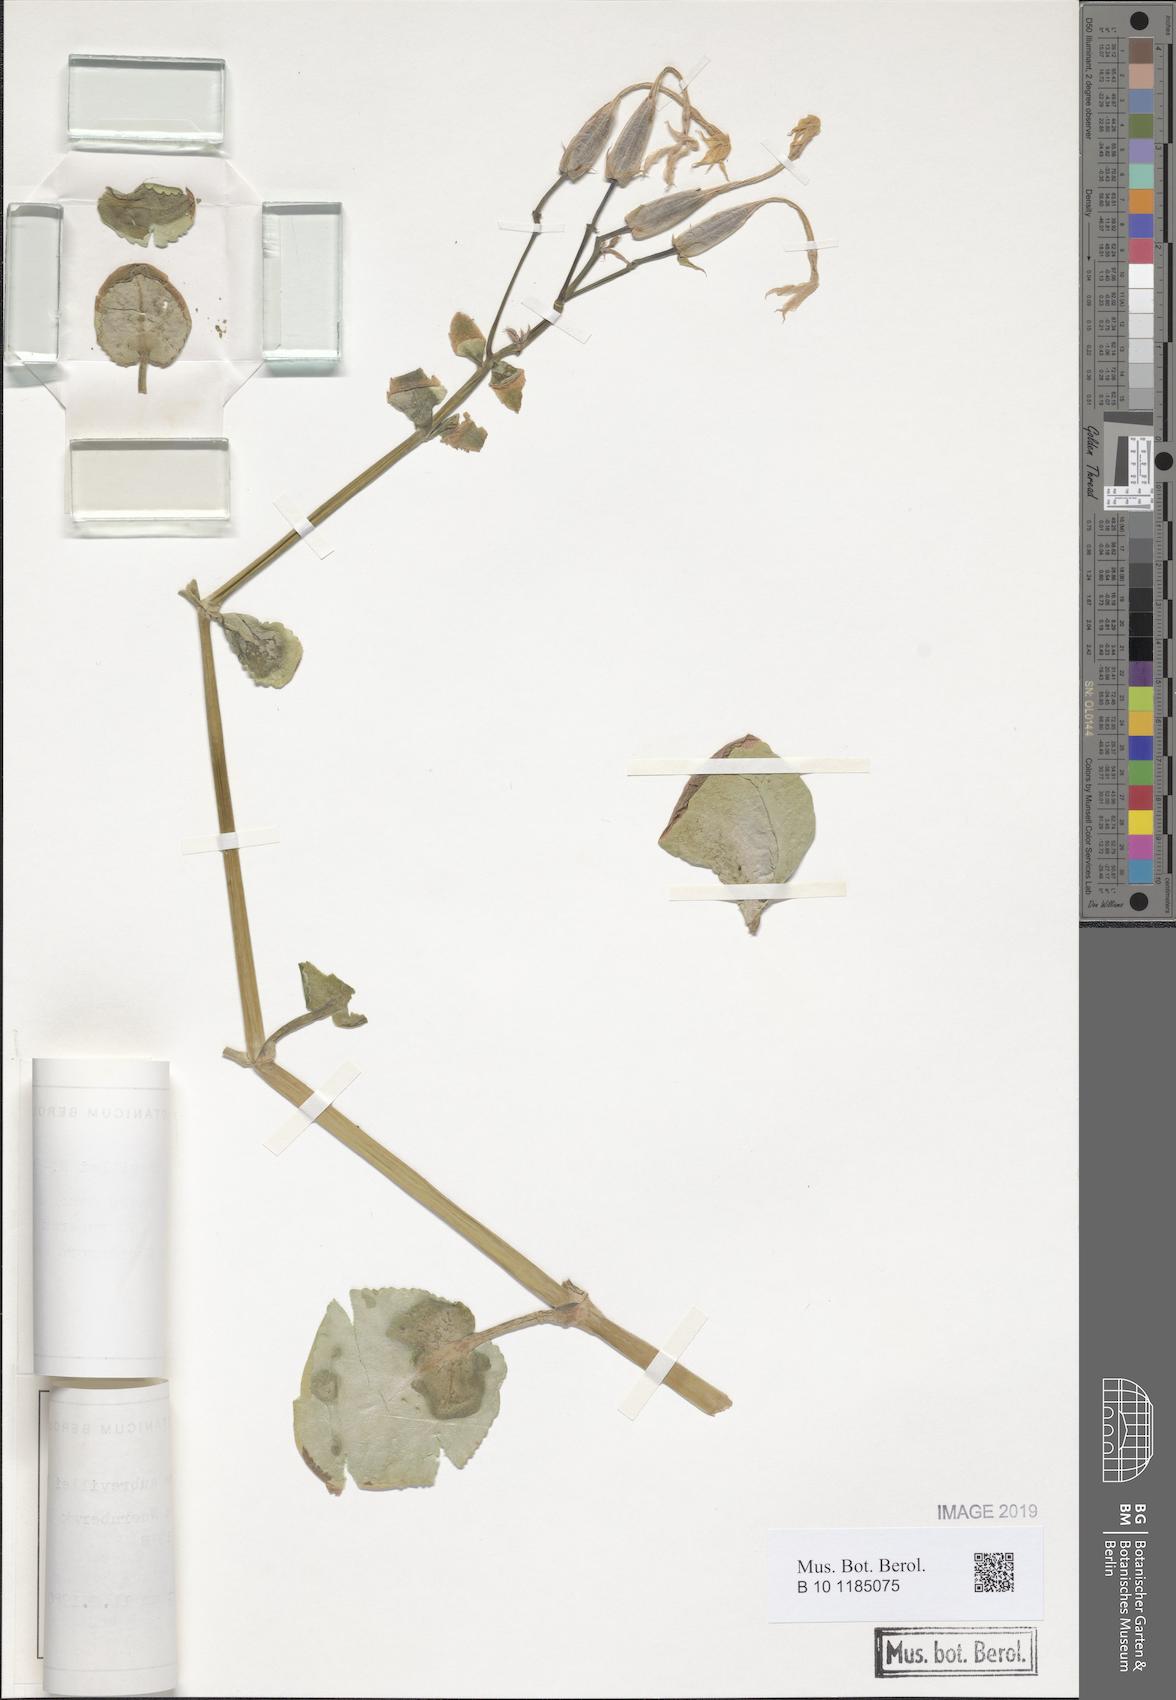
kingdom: Plantae
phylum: Tracheophyta
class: Magnoliopsida
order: Saxifragales
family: Crassulaceae
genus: Kalanchoe
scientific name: Kalanchoe aubrevillei
